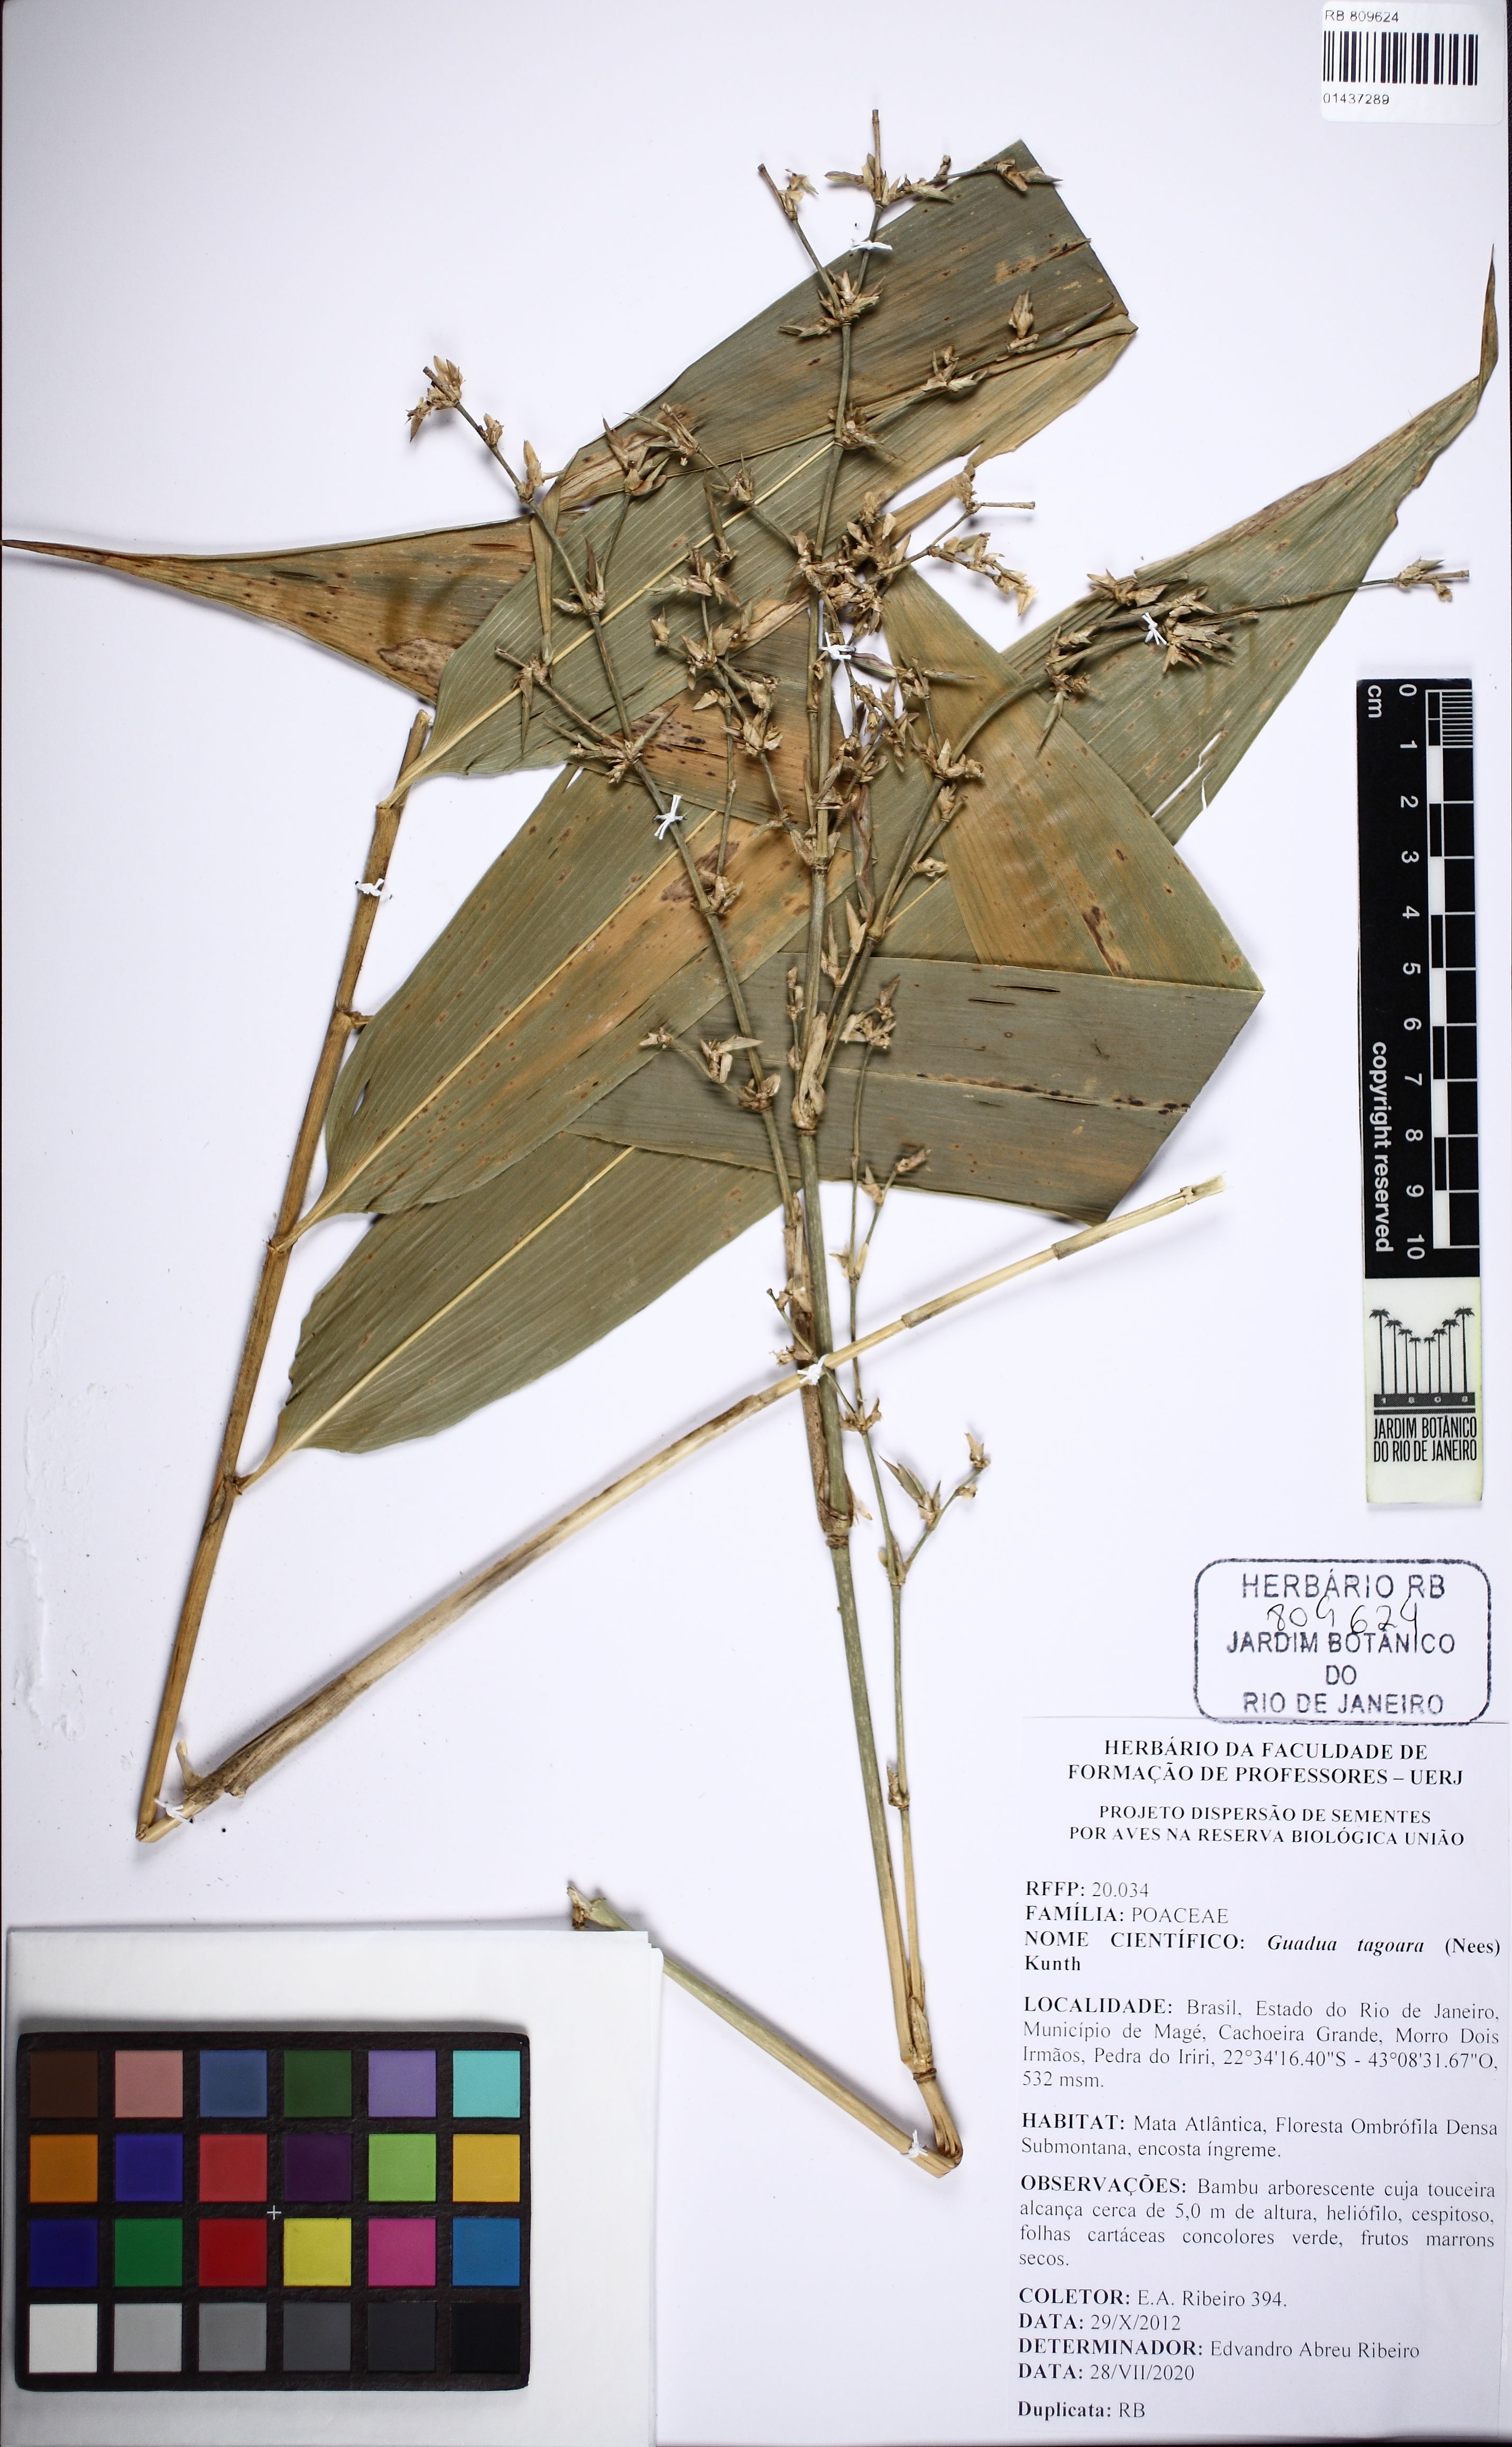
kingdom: Plantae
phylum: Tracheophyta
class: Liliopsida
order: Poales
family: Poaceae
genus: Guadua
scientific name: Guadua tagoara
